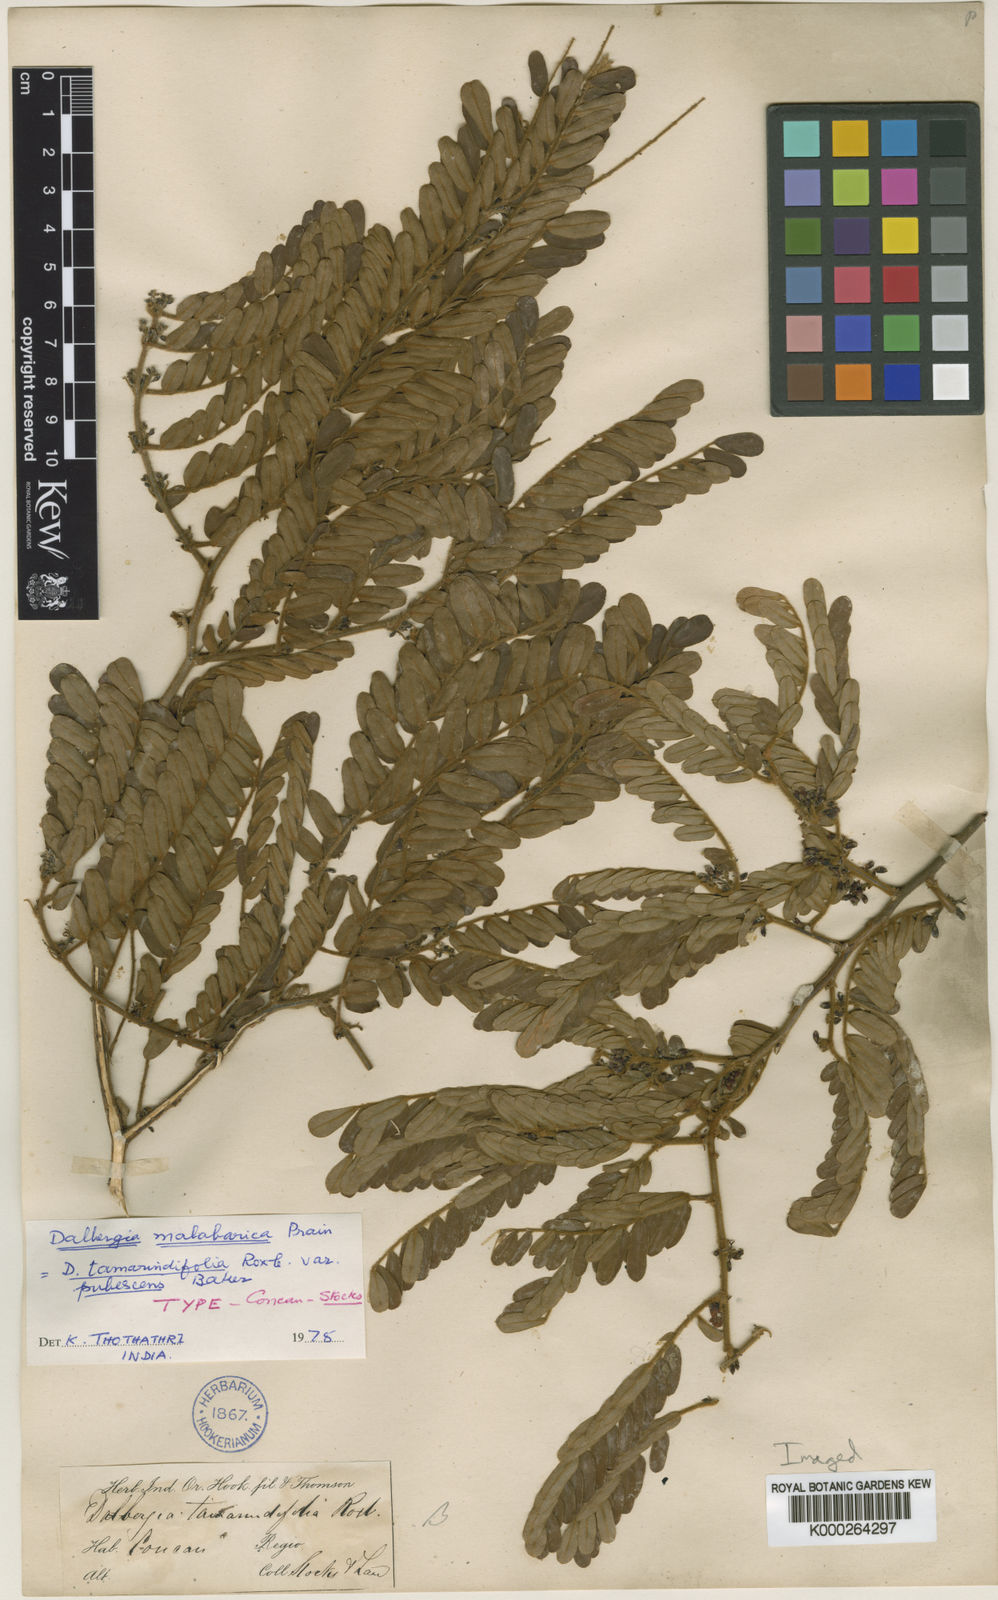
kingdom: Plantae
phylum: Tracheophyta
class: Magnoliopsida
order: Fabales
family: Fabaceae
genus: Dalbergia
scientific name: Dalbergia malabarica
